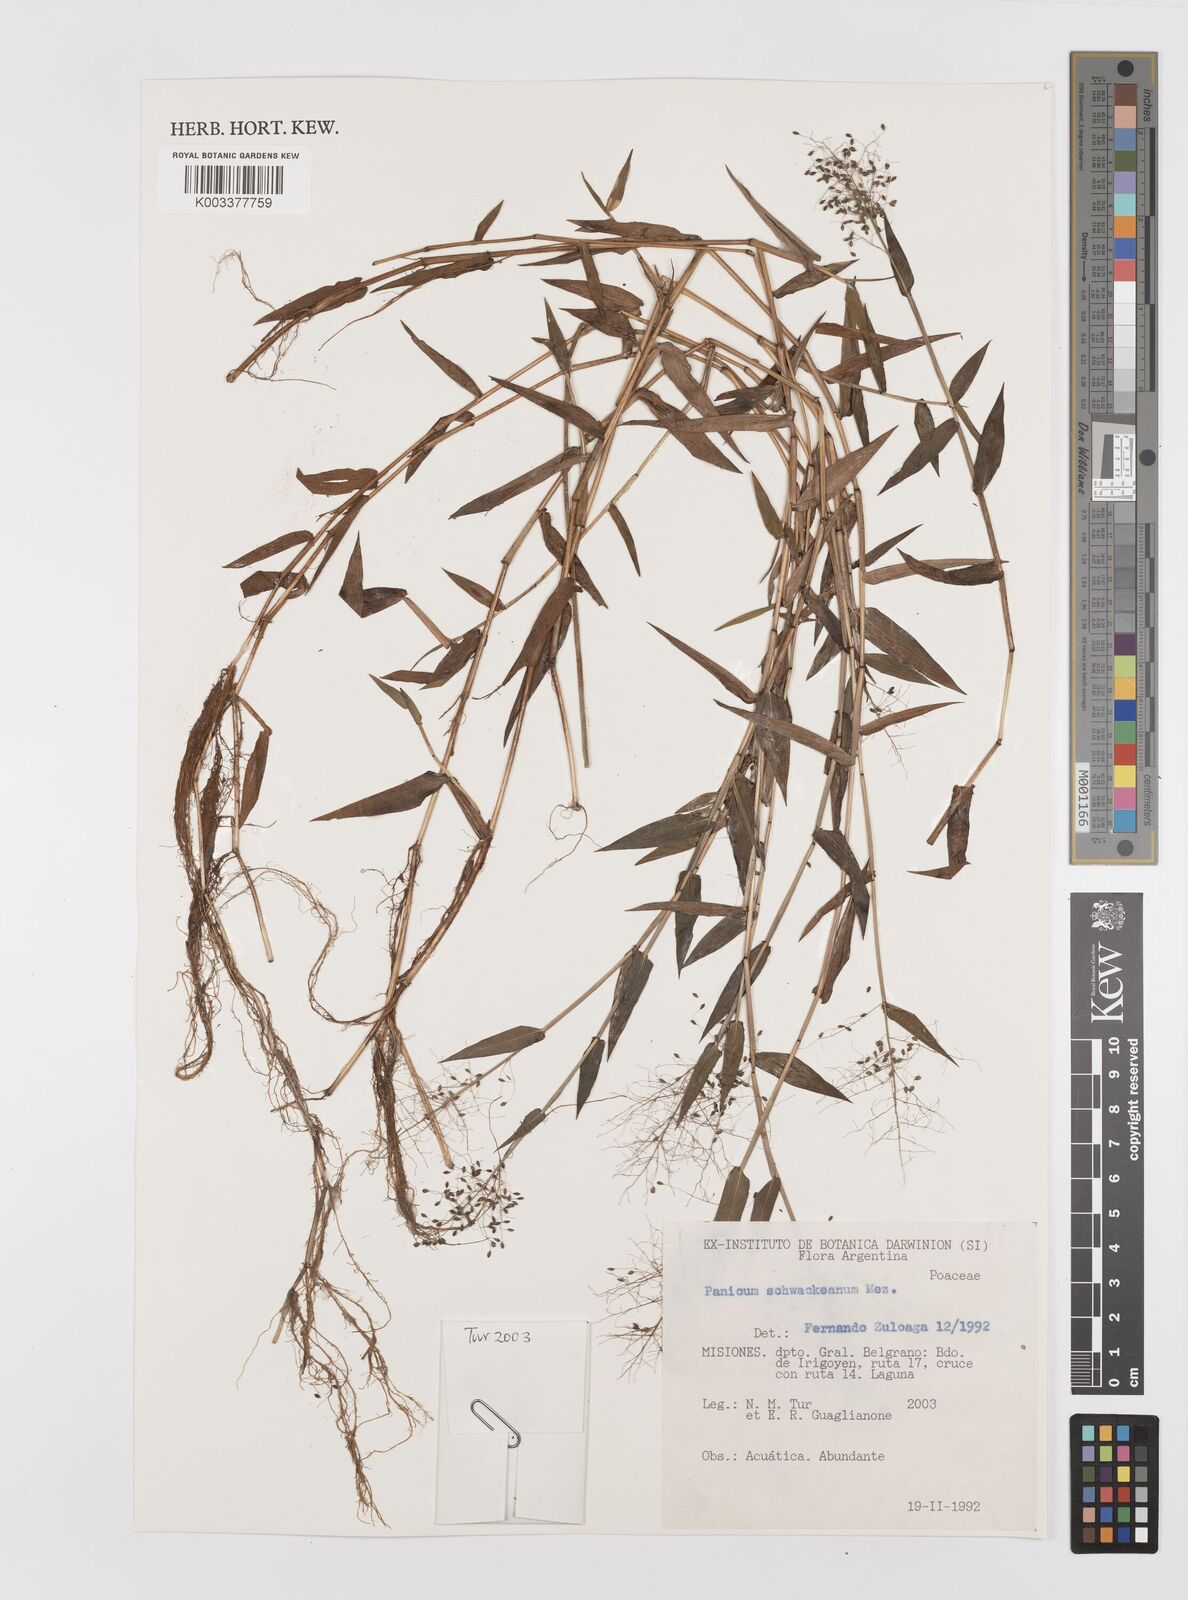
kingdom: Plantae
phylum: Tracheophyta
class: Liliopsida
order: Poales
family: Poaceae
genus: Trichanthecium
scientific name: Trichanthecium schwackeanum
